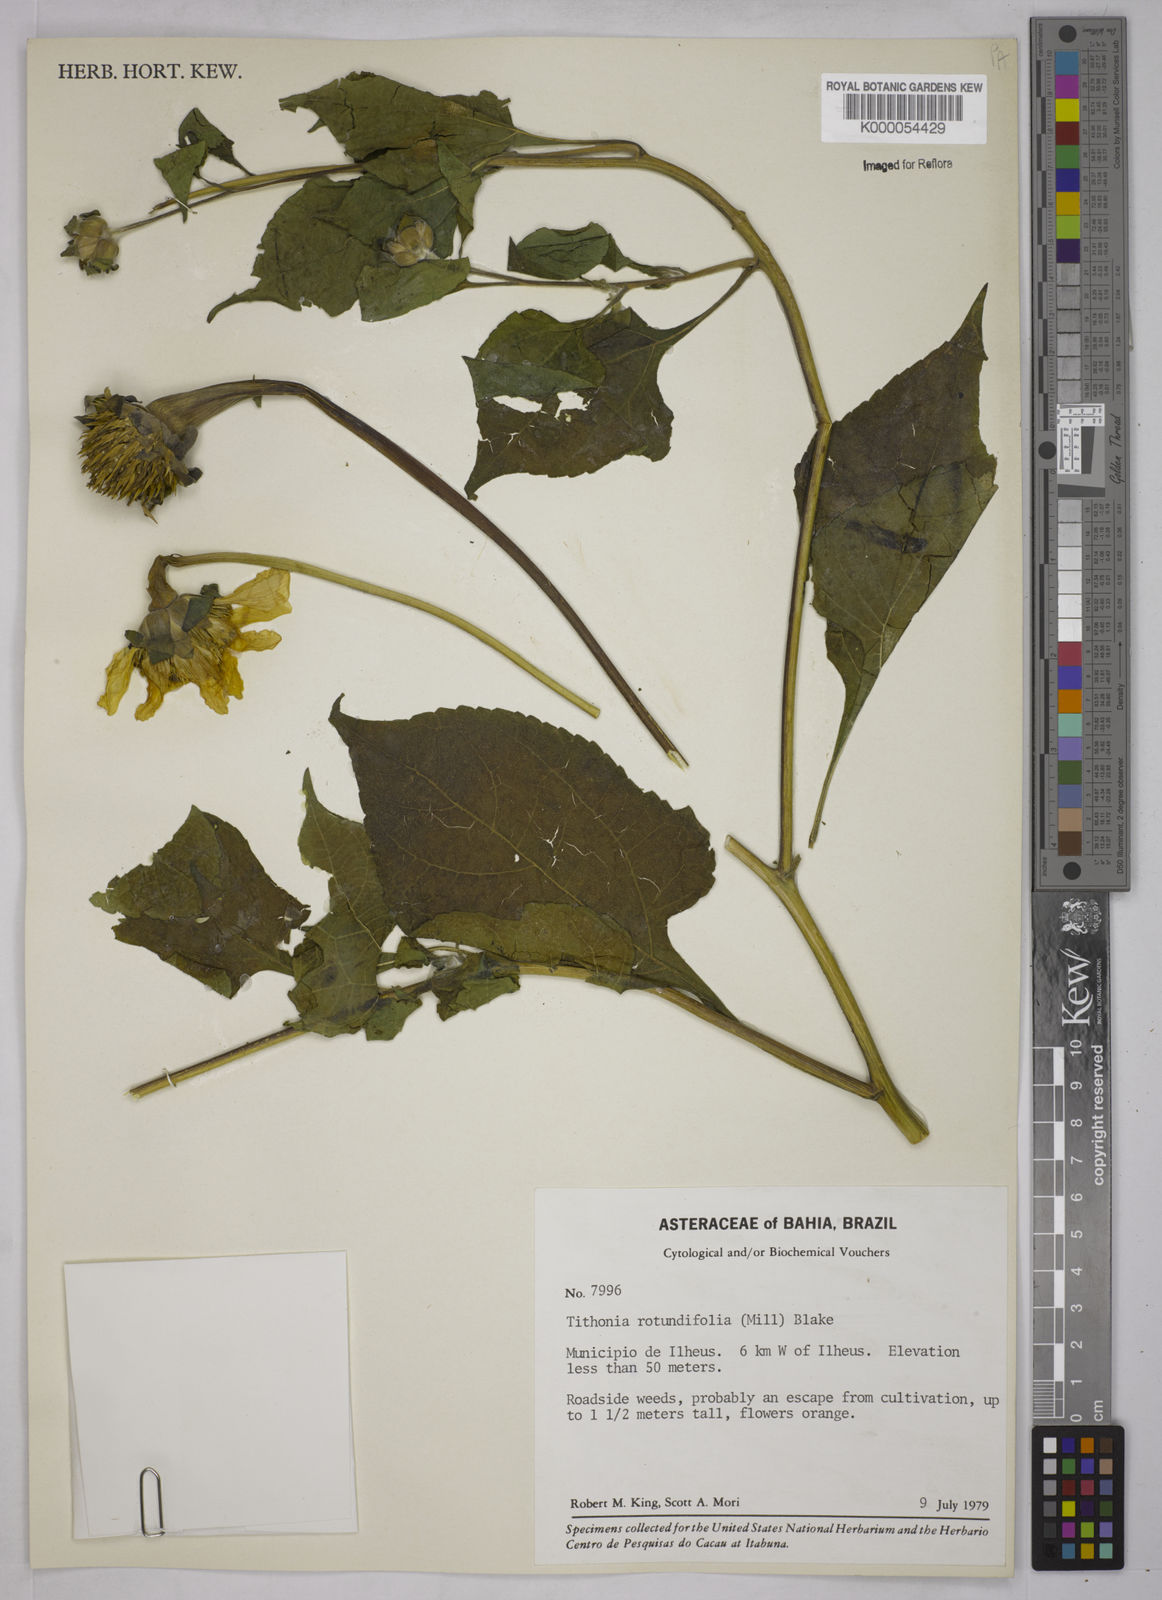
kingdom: Plantae
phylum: Tracheophyta
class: Magnoliopsida
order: Asterales
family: Asteraceae
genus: Tithonia
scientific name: Tithonia rotundifolia
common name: Sunflower
